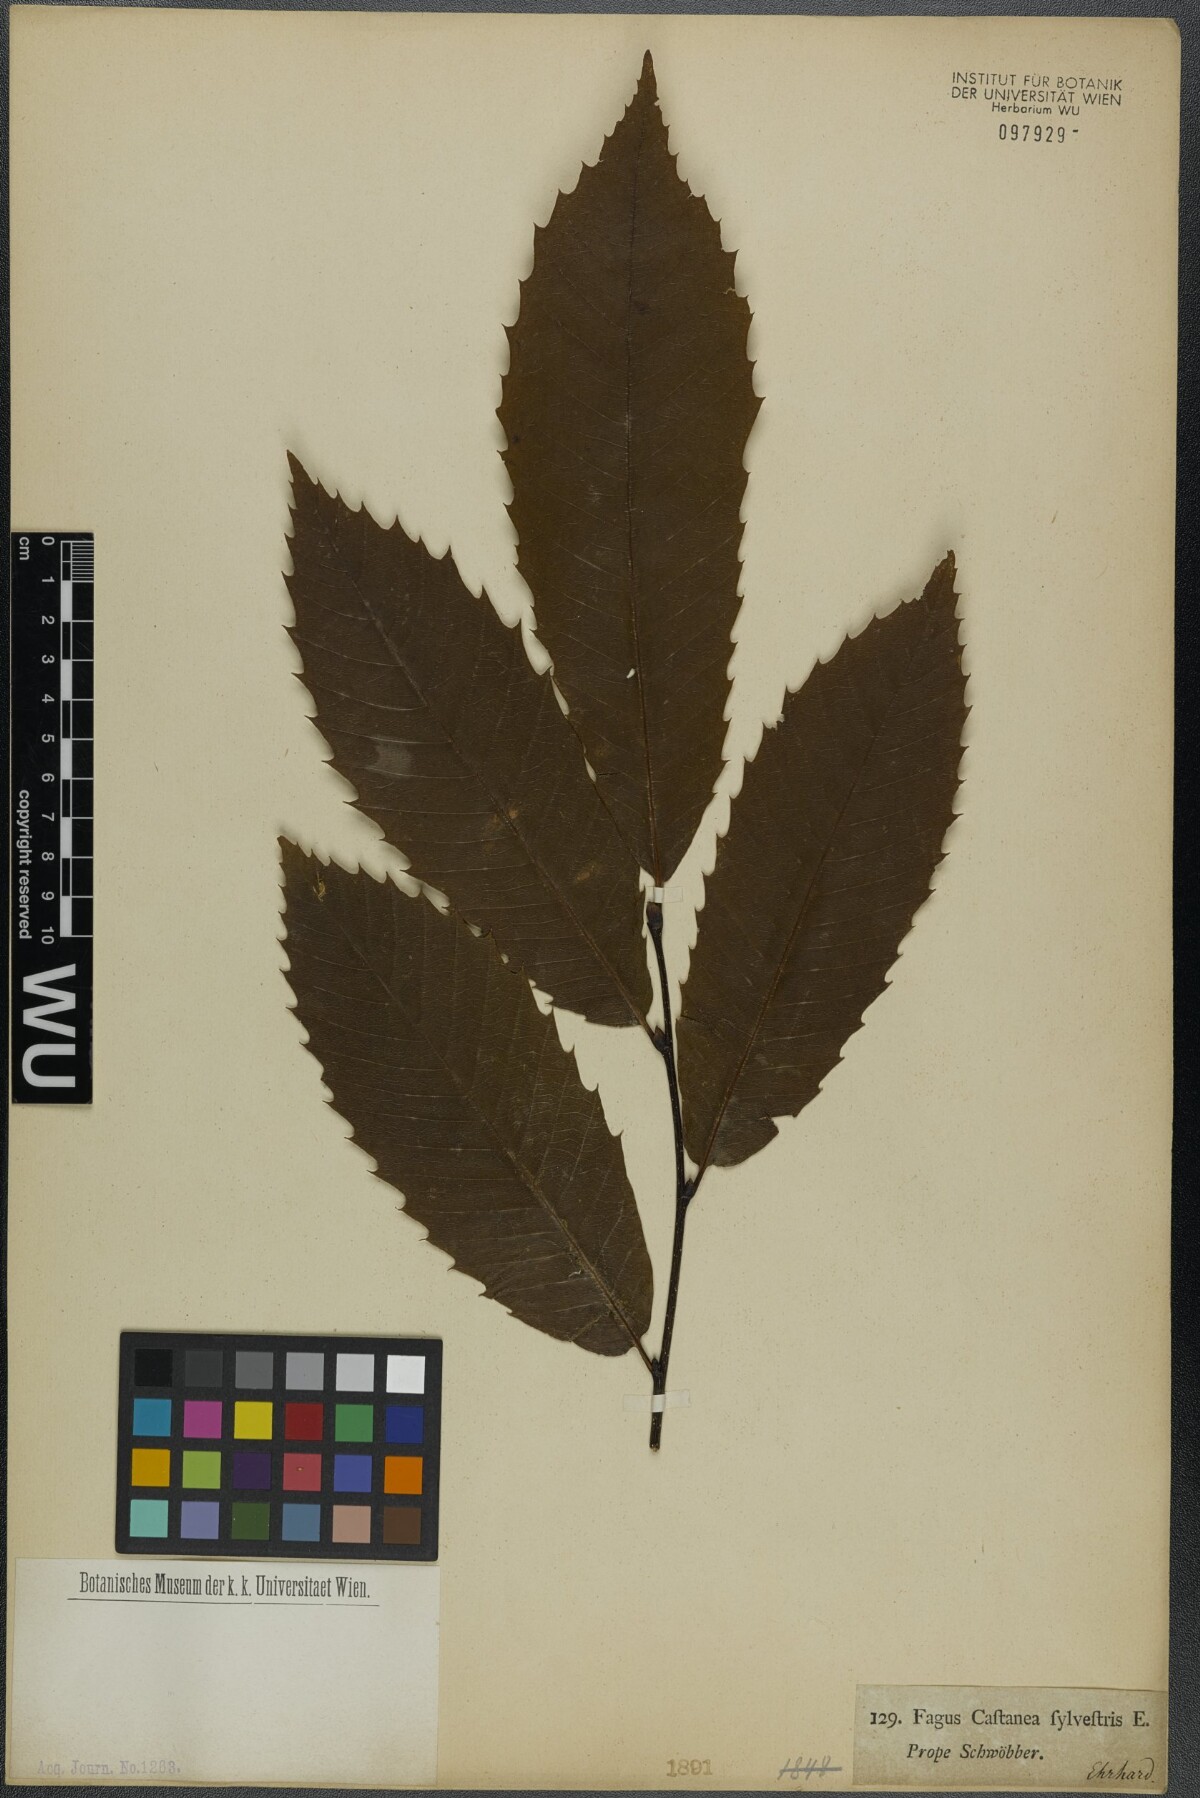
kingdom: Plantae
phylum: Tracheophyta
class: Magnoliopsida
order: Fagales
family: Fagaceae
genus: Castanea
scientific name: Castanea sativa
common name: Sweet chestnut
